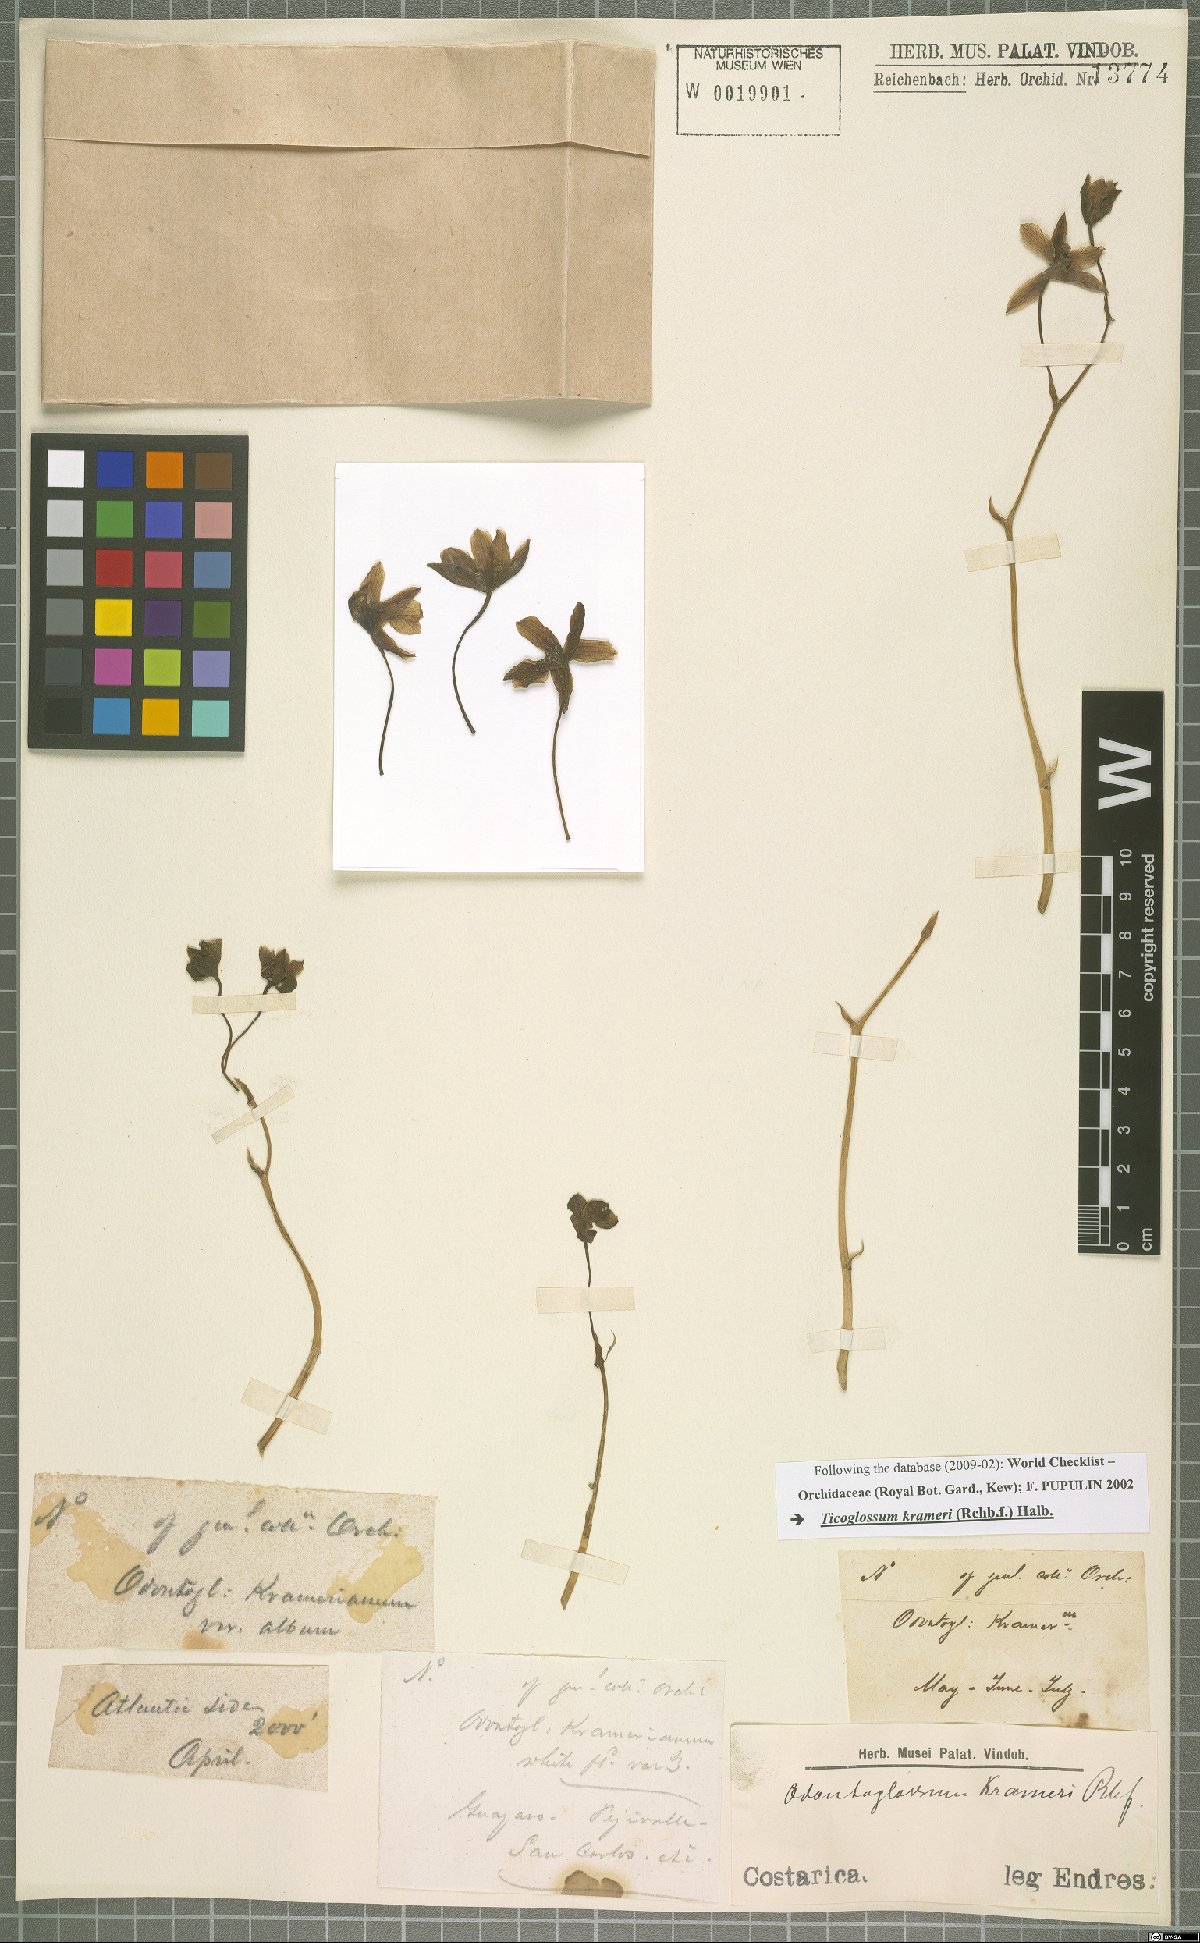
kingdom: Plantae
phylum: Tracheophyta
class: Liliopsida
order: Asparagales
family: Orchidaceae
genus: Rossioglossum
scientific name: Rossioglossum krameri
